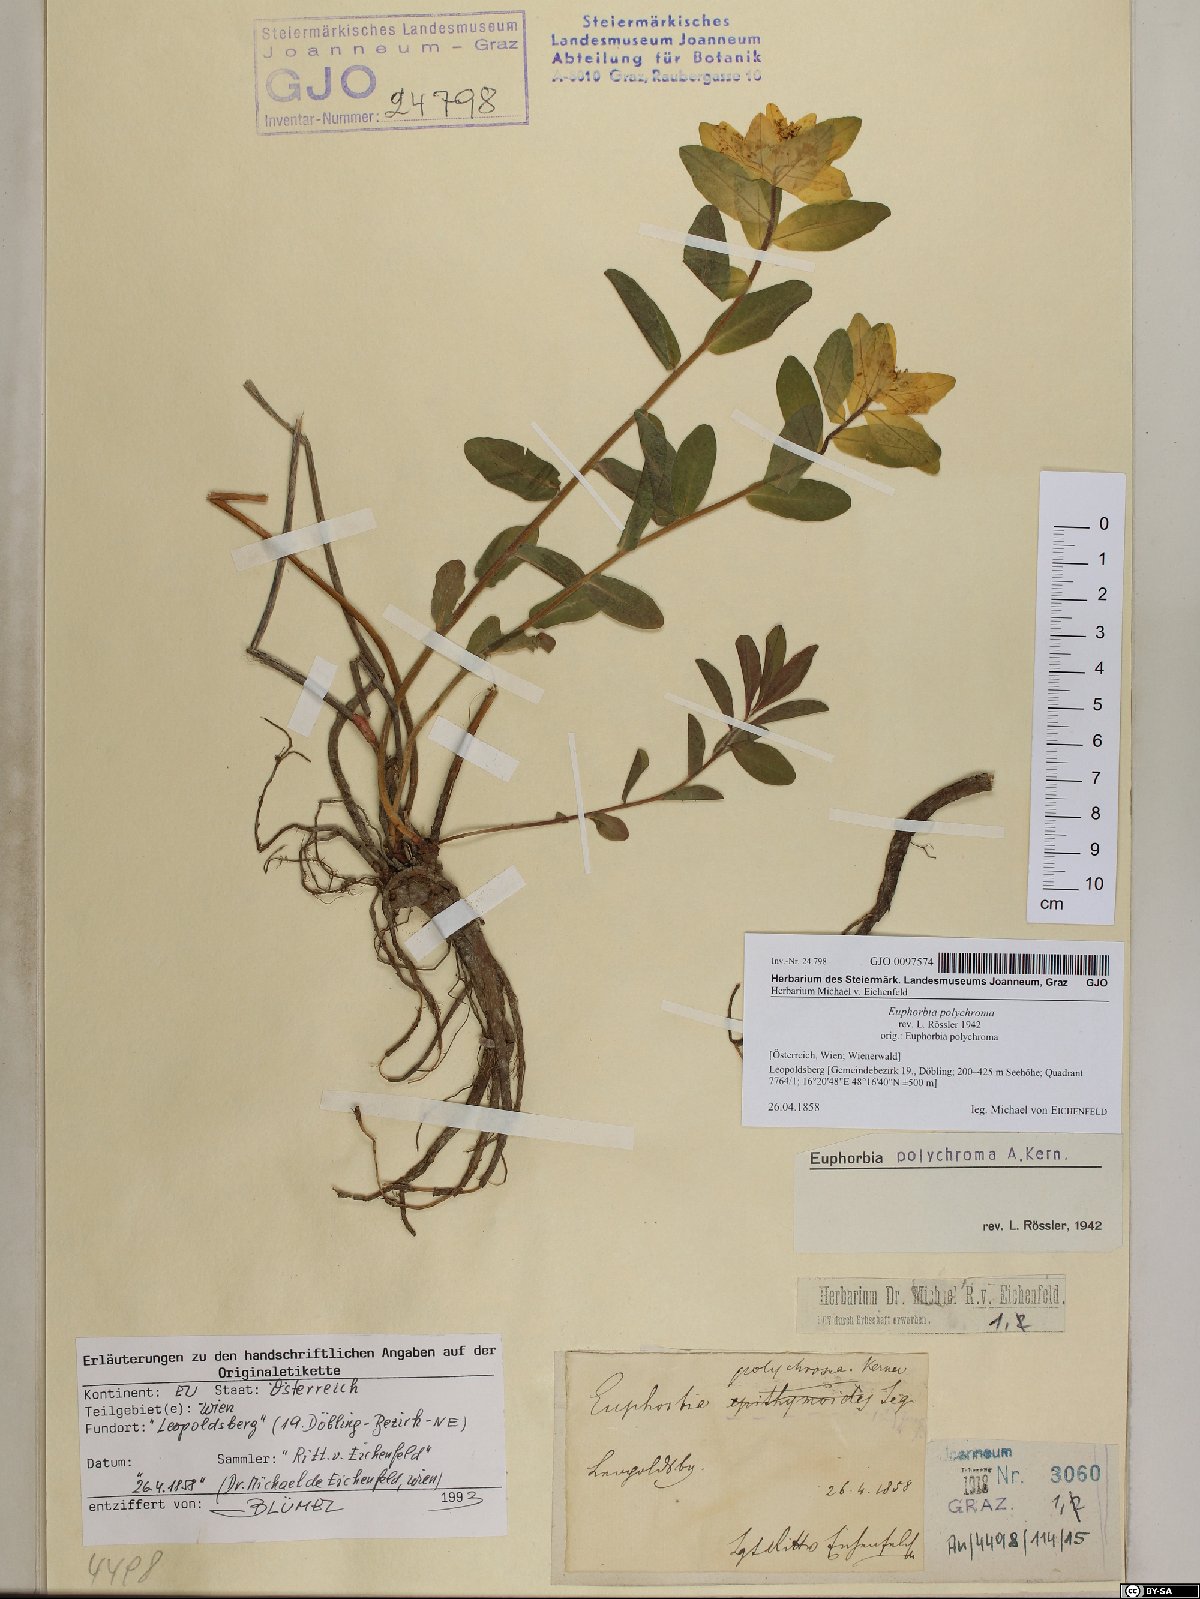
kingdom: Plantae
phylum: Tracheophyta
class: Magnoliopsida
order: Malpighiales
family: Euphorbiaceae
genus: Euphorbia
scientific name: Euphorbia epithymoides
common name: Cushion spurge
